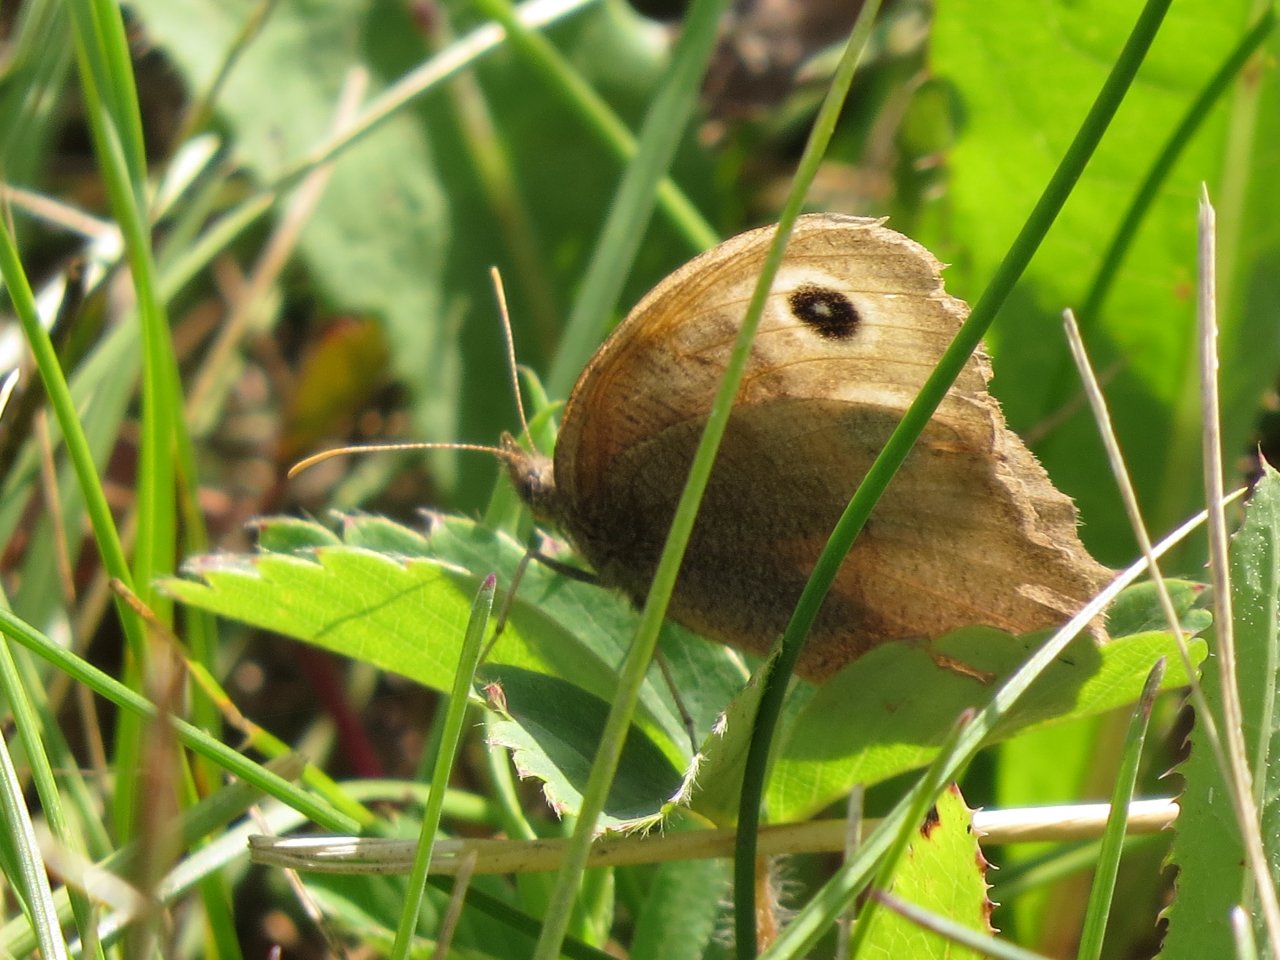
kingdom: Animalia
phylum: Arthropoda
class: Insecta
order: Lepidoptera
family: Nymphalidae
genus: Cercyonis
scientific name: Cercyonis pegala
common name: Common Wood-Nymph
